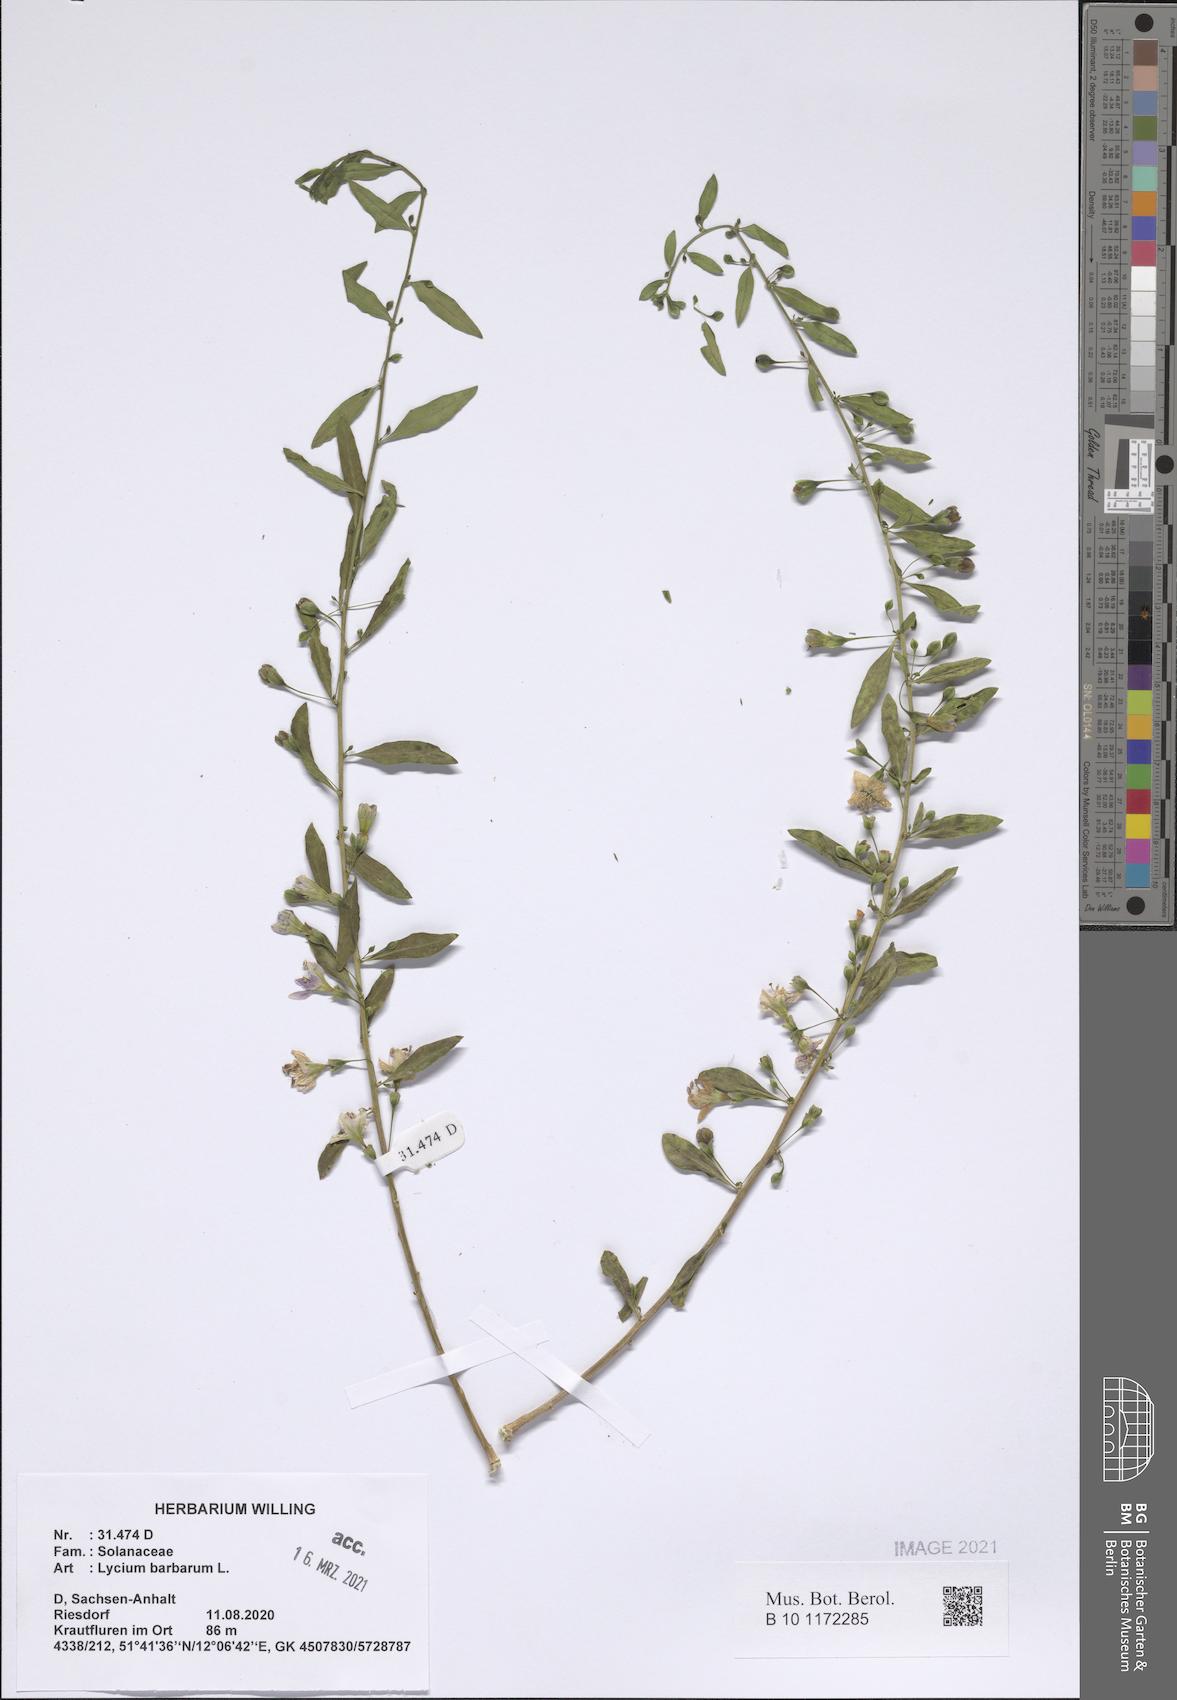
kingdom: Plantae
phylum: Tracheophyta
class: Magnoliopsida
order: Solanales
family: Solanaceae
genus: Lycium
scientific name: Lycium barbarum
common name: Duke of argyll's teaplant
